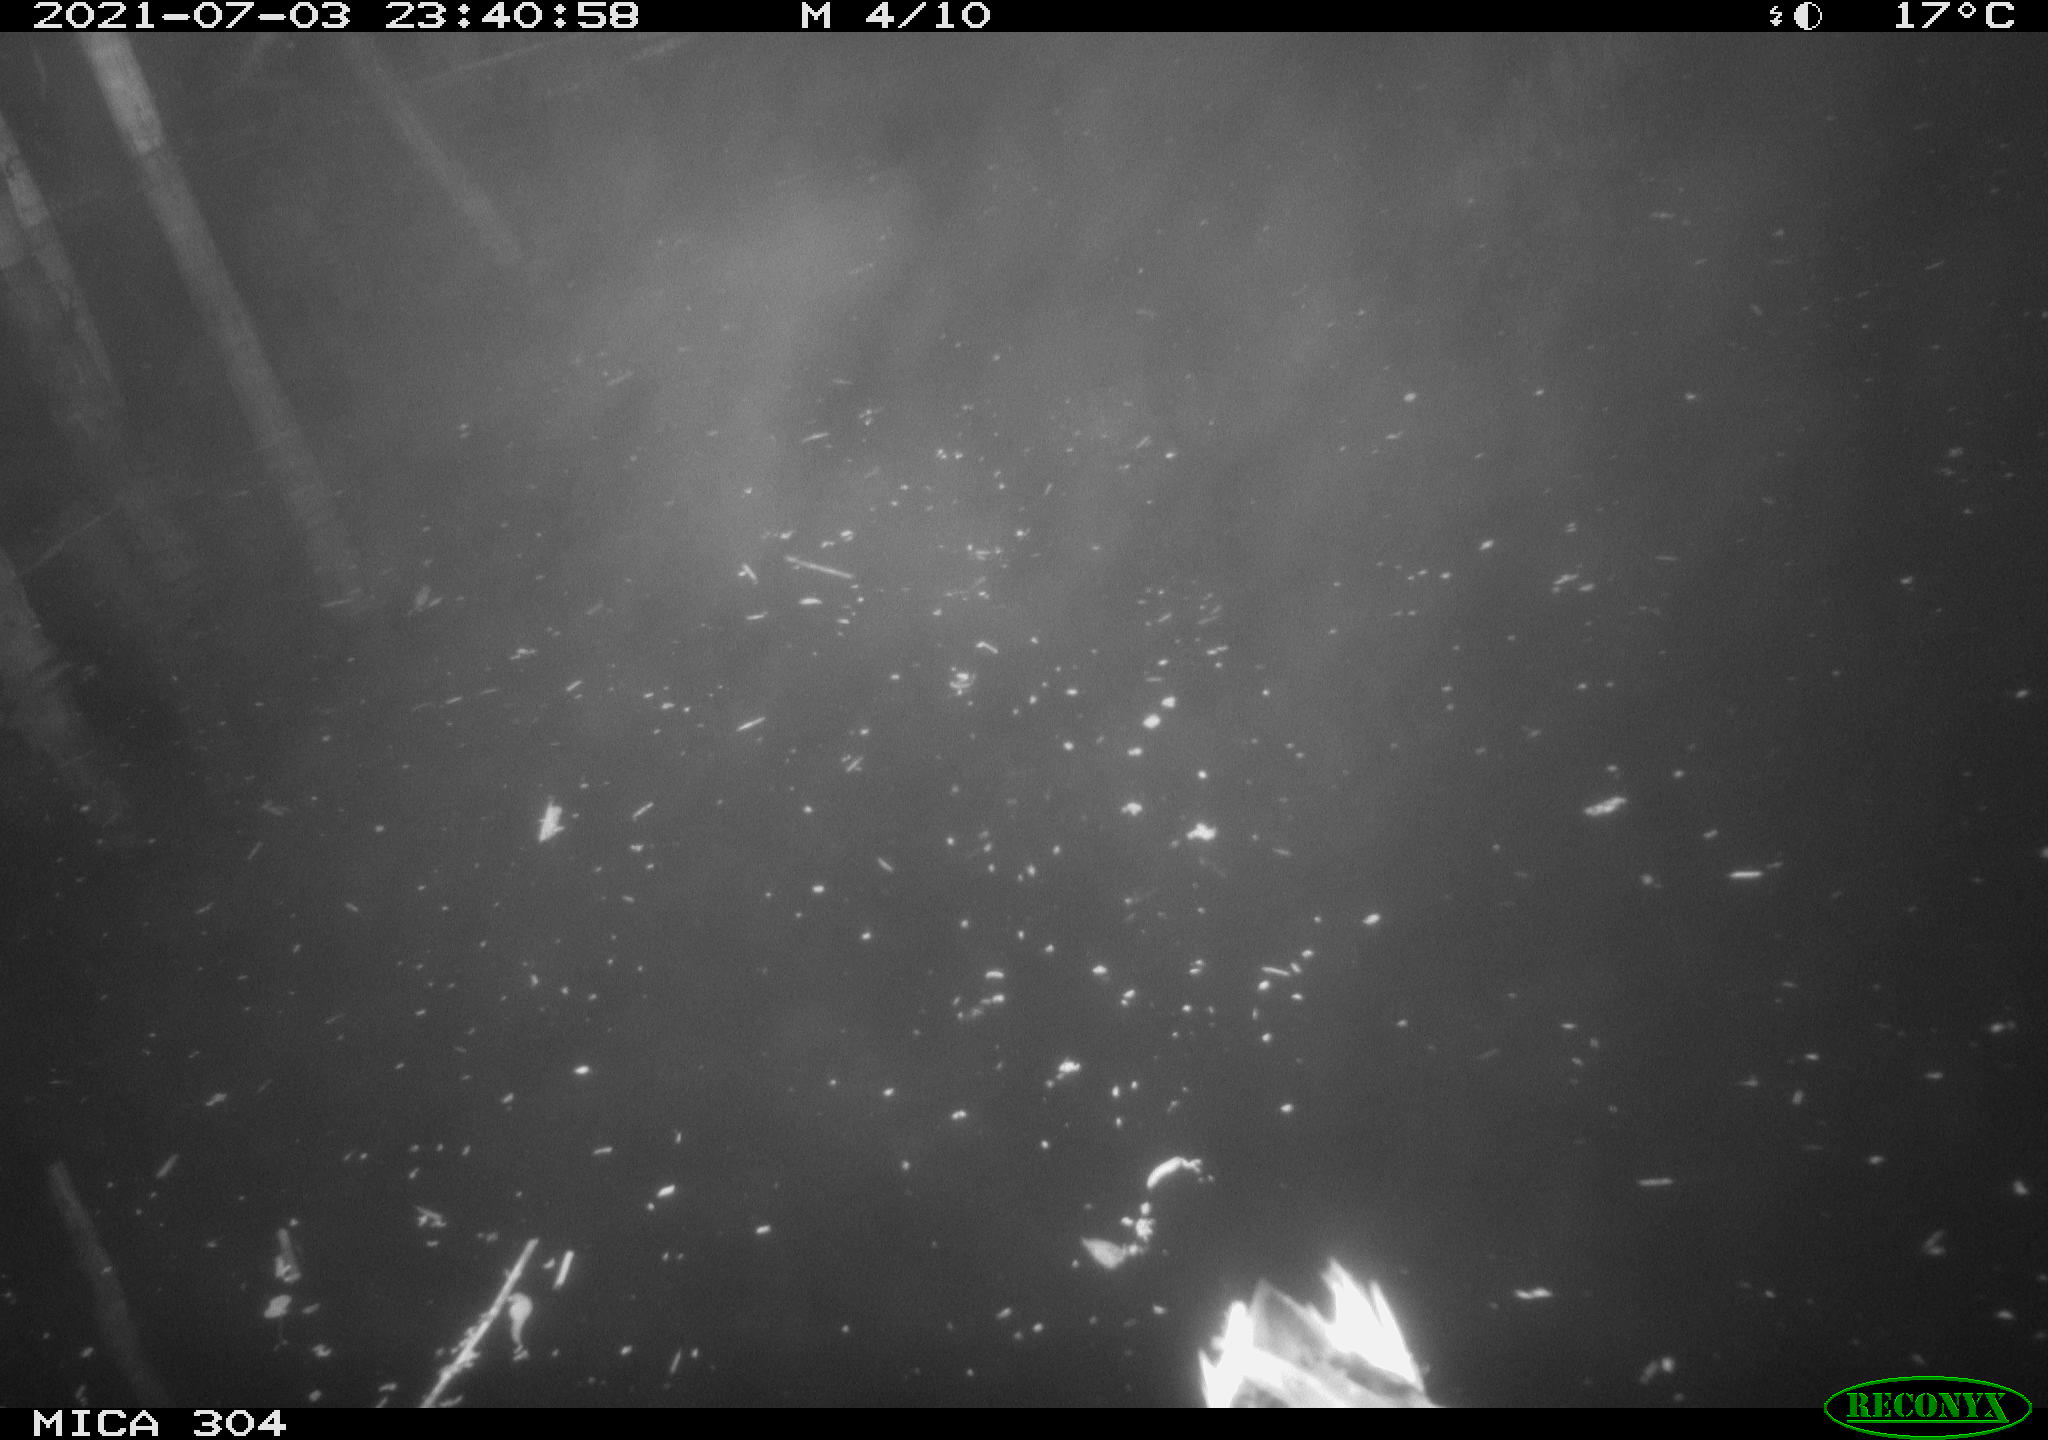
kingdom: Animalia
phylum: Chordata
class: Aves
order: Anseriformes
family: Anatidae
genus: Anas
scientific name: Anas platyrhynchos
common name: Mallard
